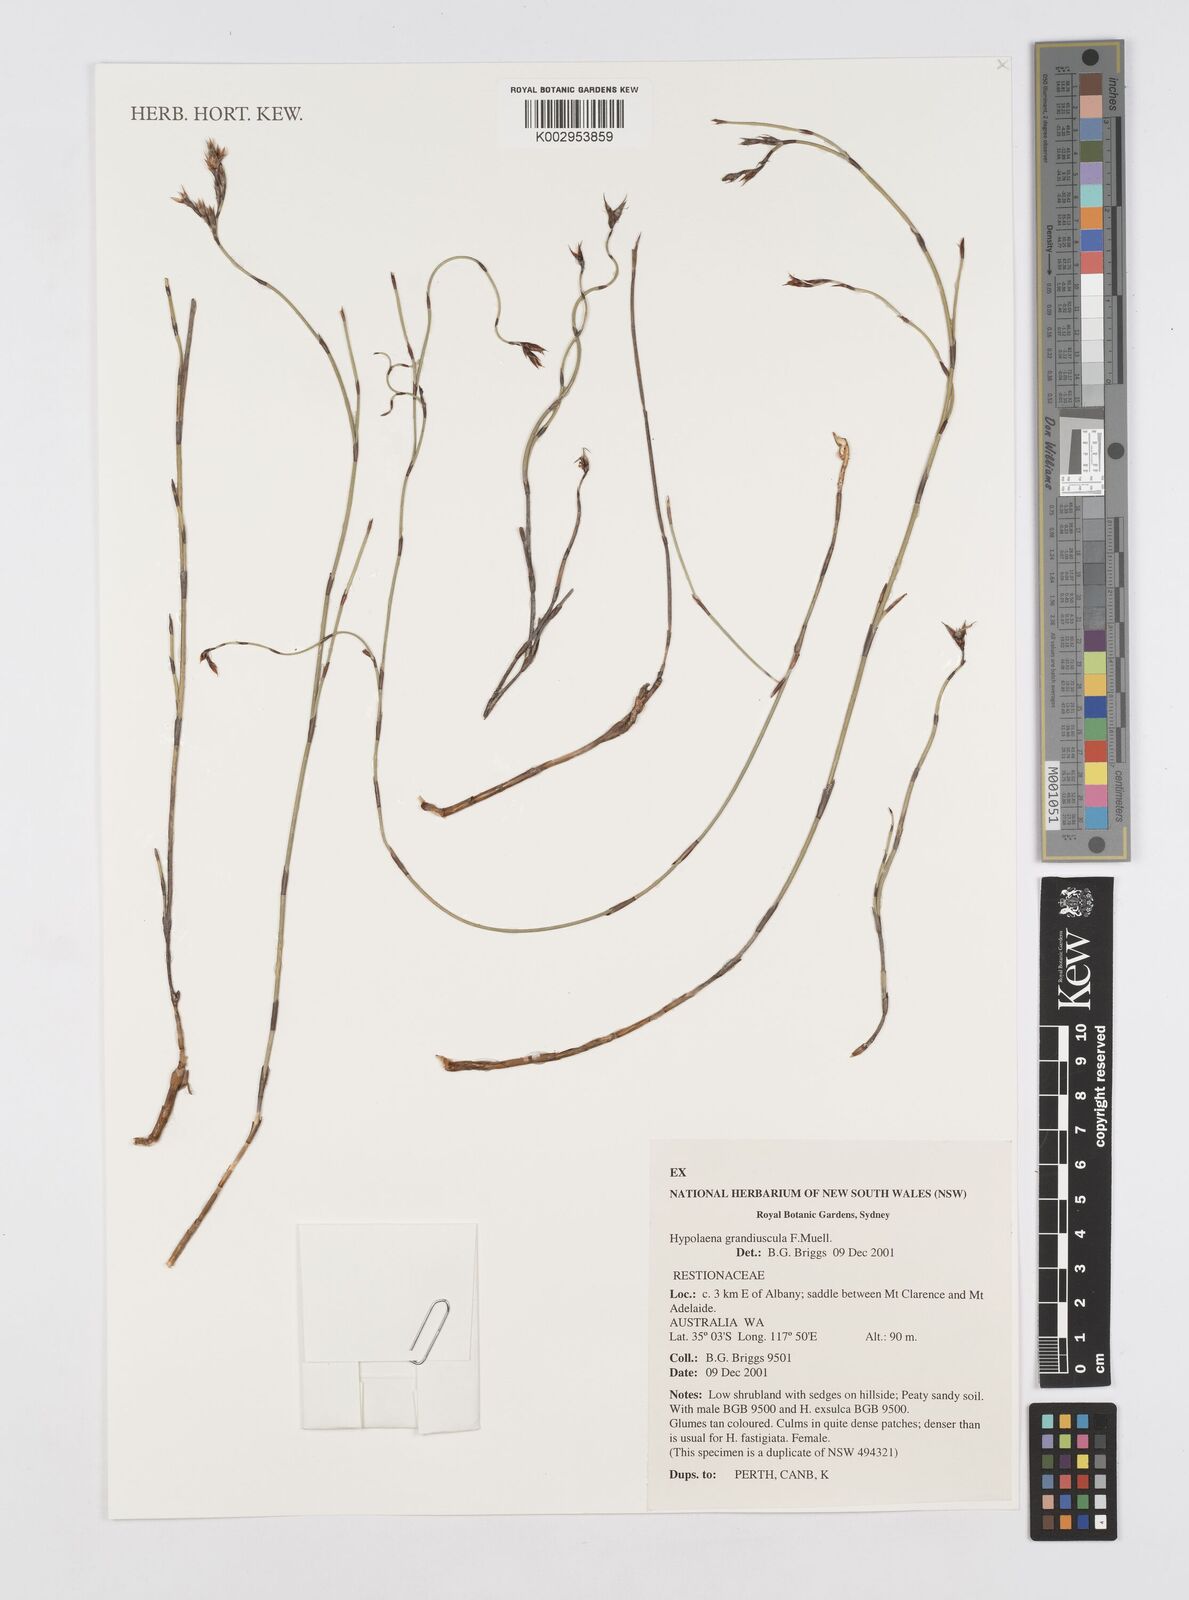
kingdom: Plantae
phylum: Tracheophyta
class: Liliopsida
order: Poales
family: Restionaceae
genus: Hypolaena
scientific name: Hypolaena exsulca
